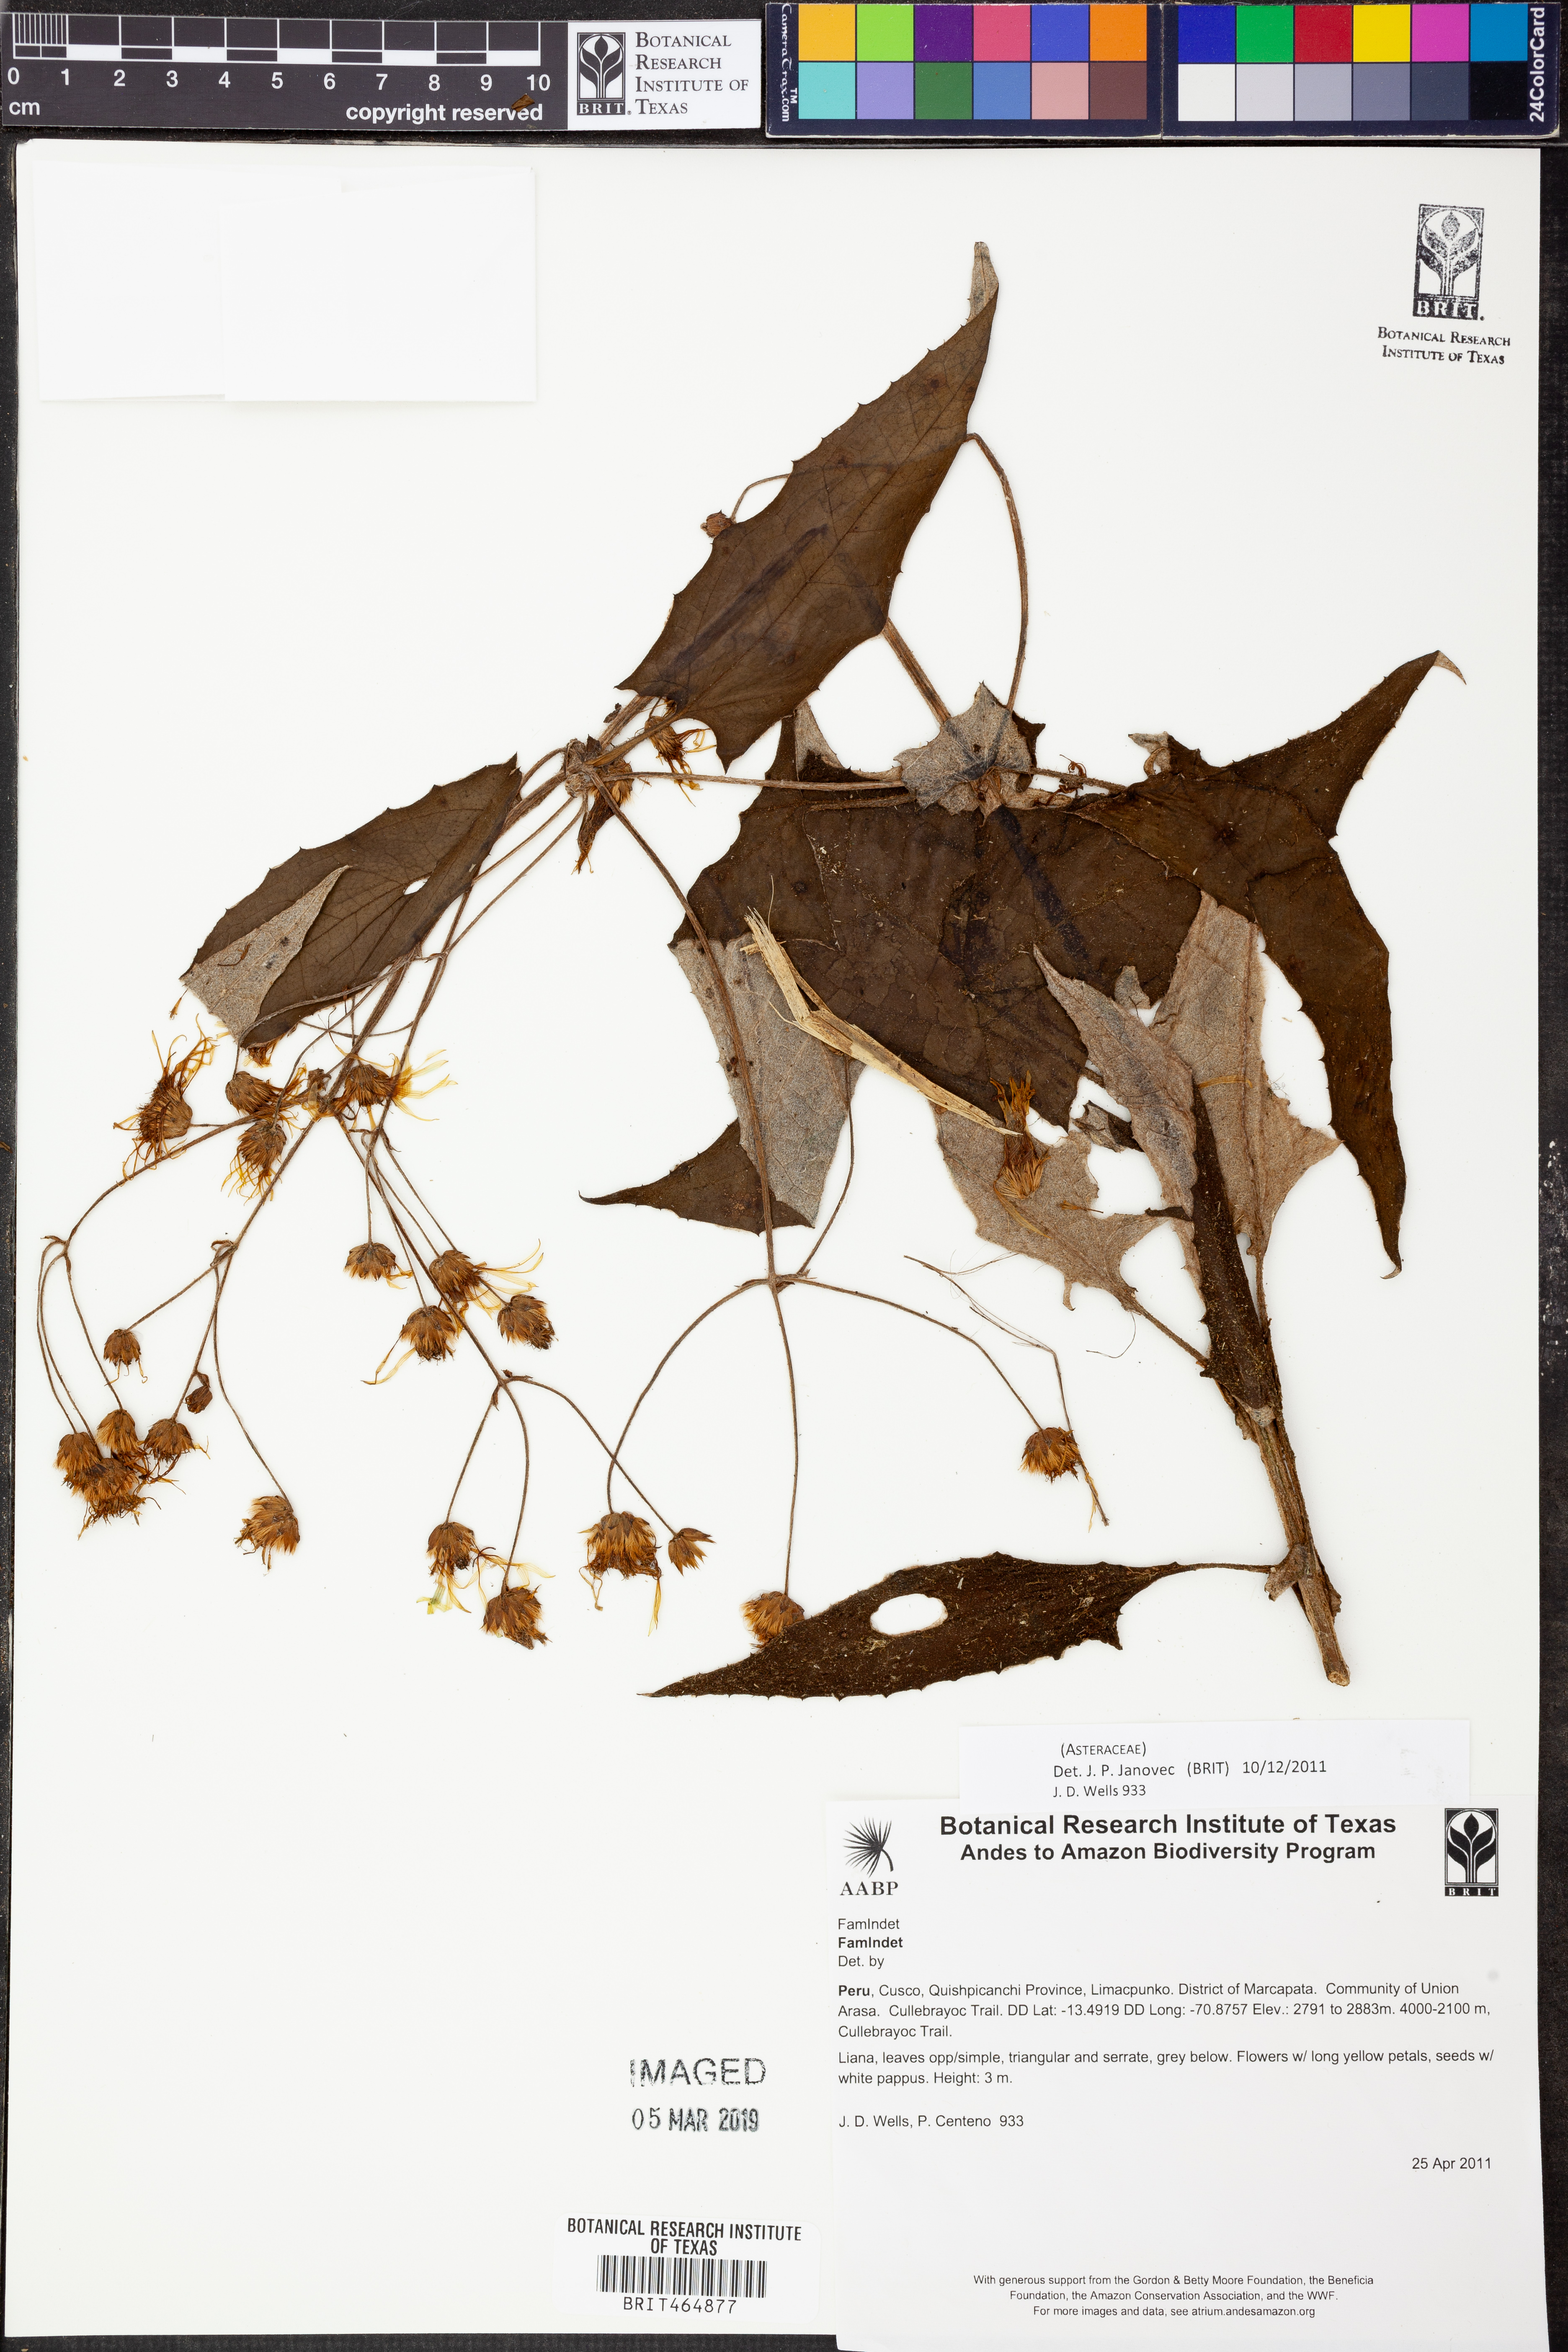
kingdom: Plantae
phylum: Tracheophyta
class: Magnoliopsida
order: Asterales
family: Asteraceae
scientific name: Asteraceae
